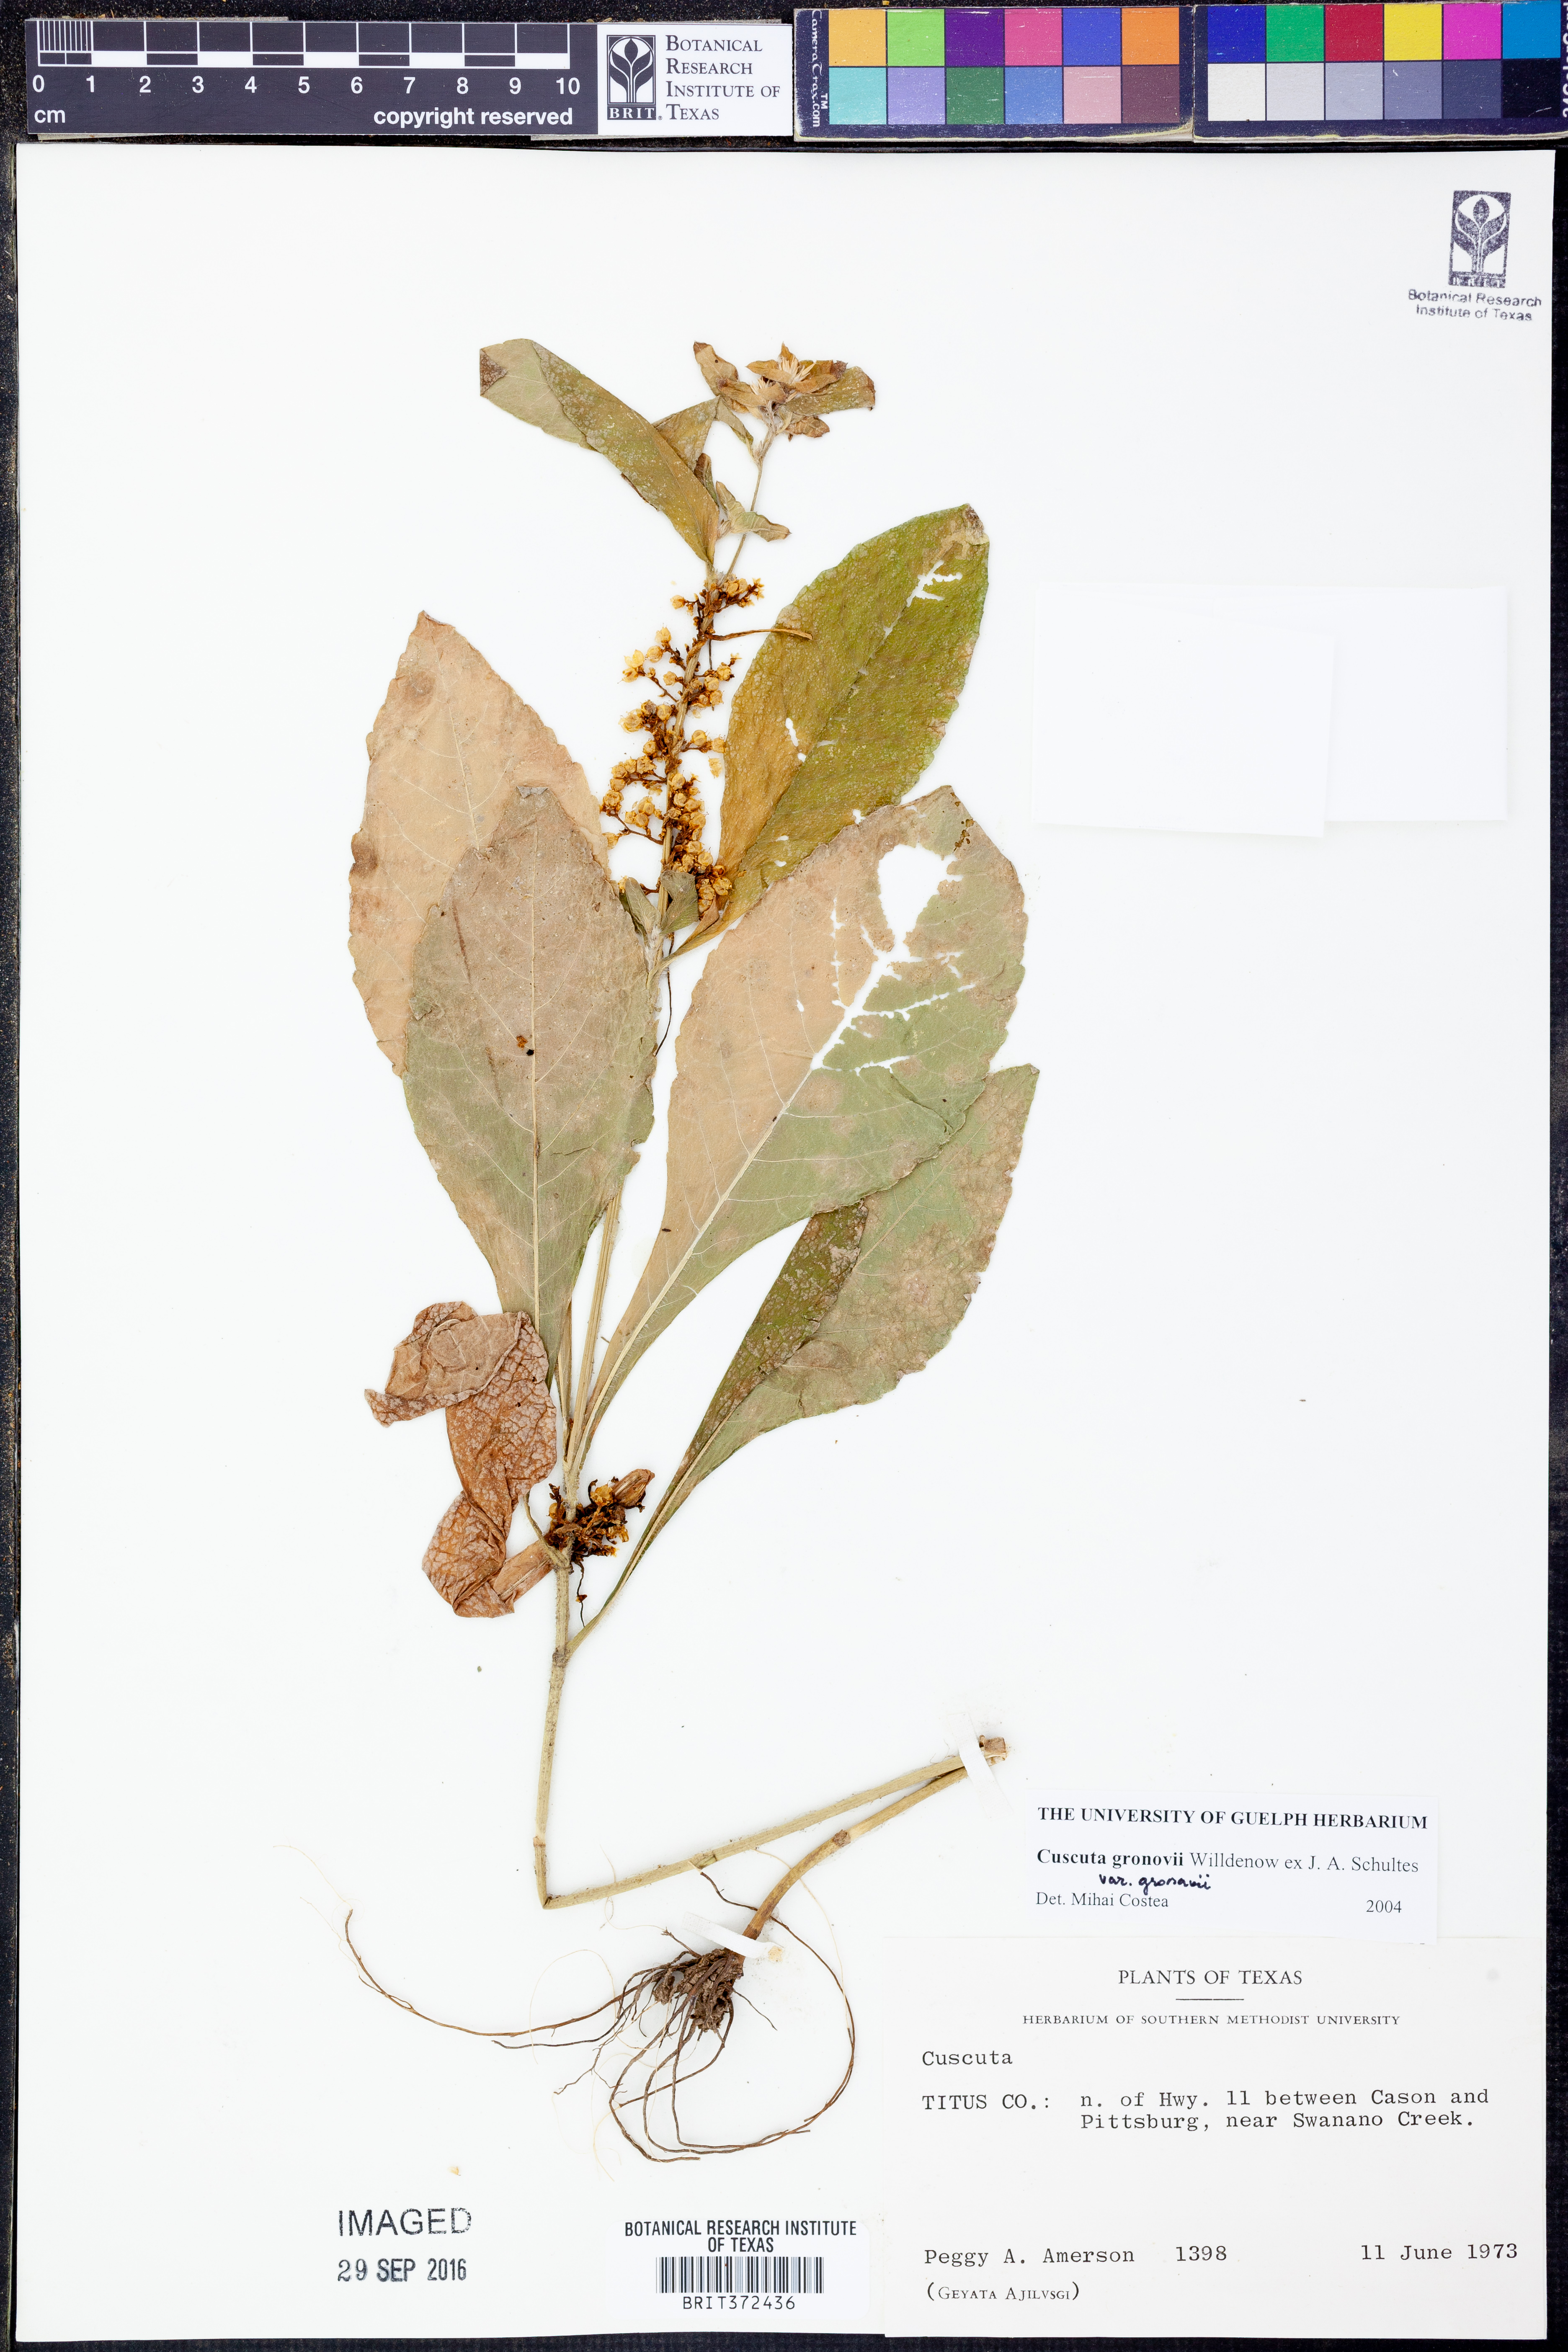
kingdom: Plantae
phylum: Tracheophyta
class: Magnoliopsida
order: Solanales
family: Convolvulaceae
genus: Cuscuta
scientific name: Cuscuta gronovii
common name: Common dodder
